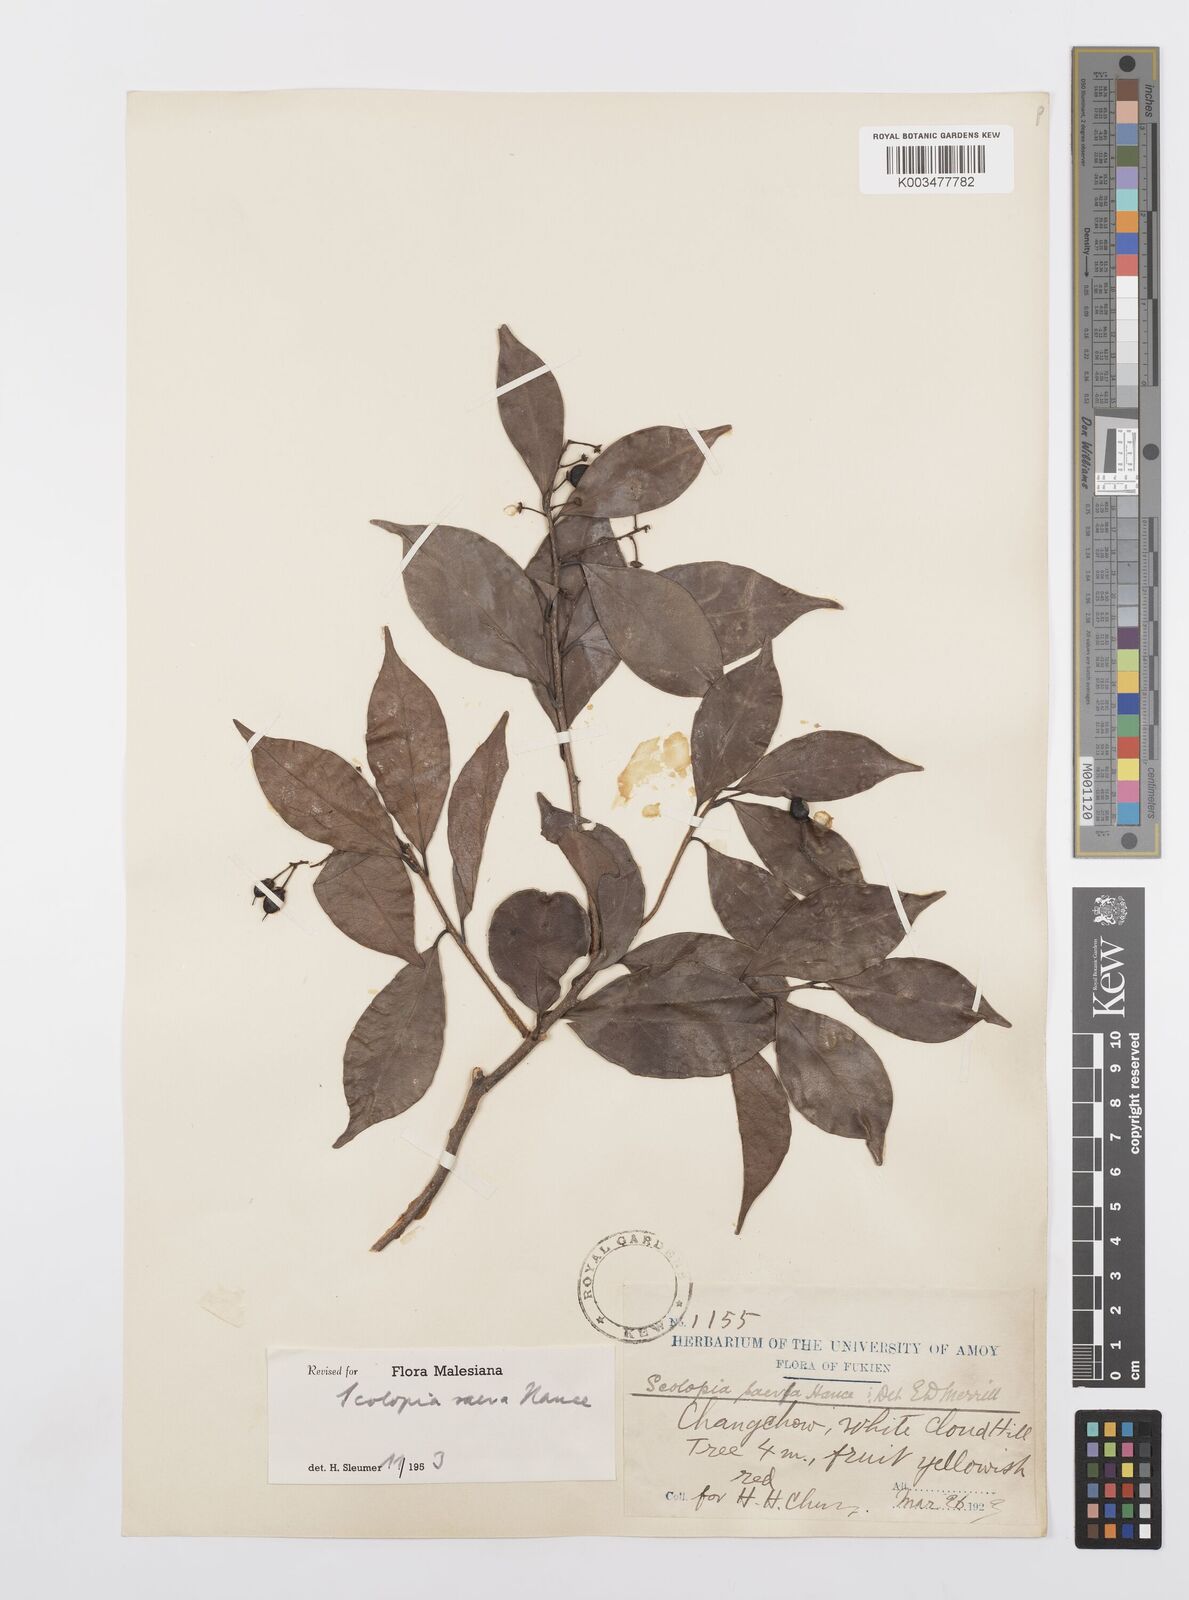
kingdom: Plantae
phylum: Tracheophyta
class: Magnoliopsida
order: Malpighiales
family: Salicaceae
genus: Scolopia
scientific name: Scolopia saeva
